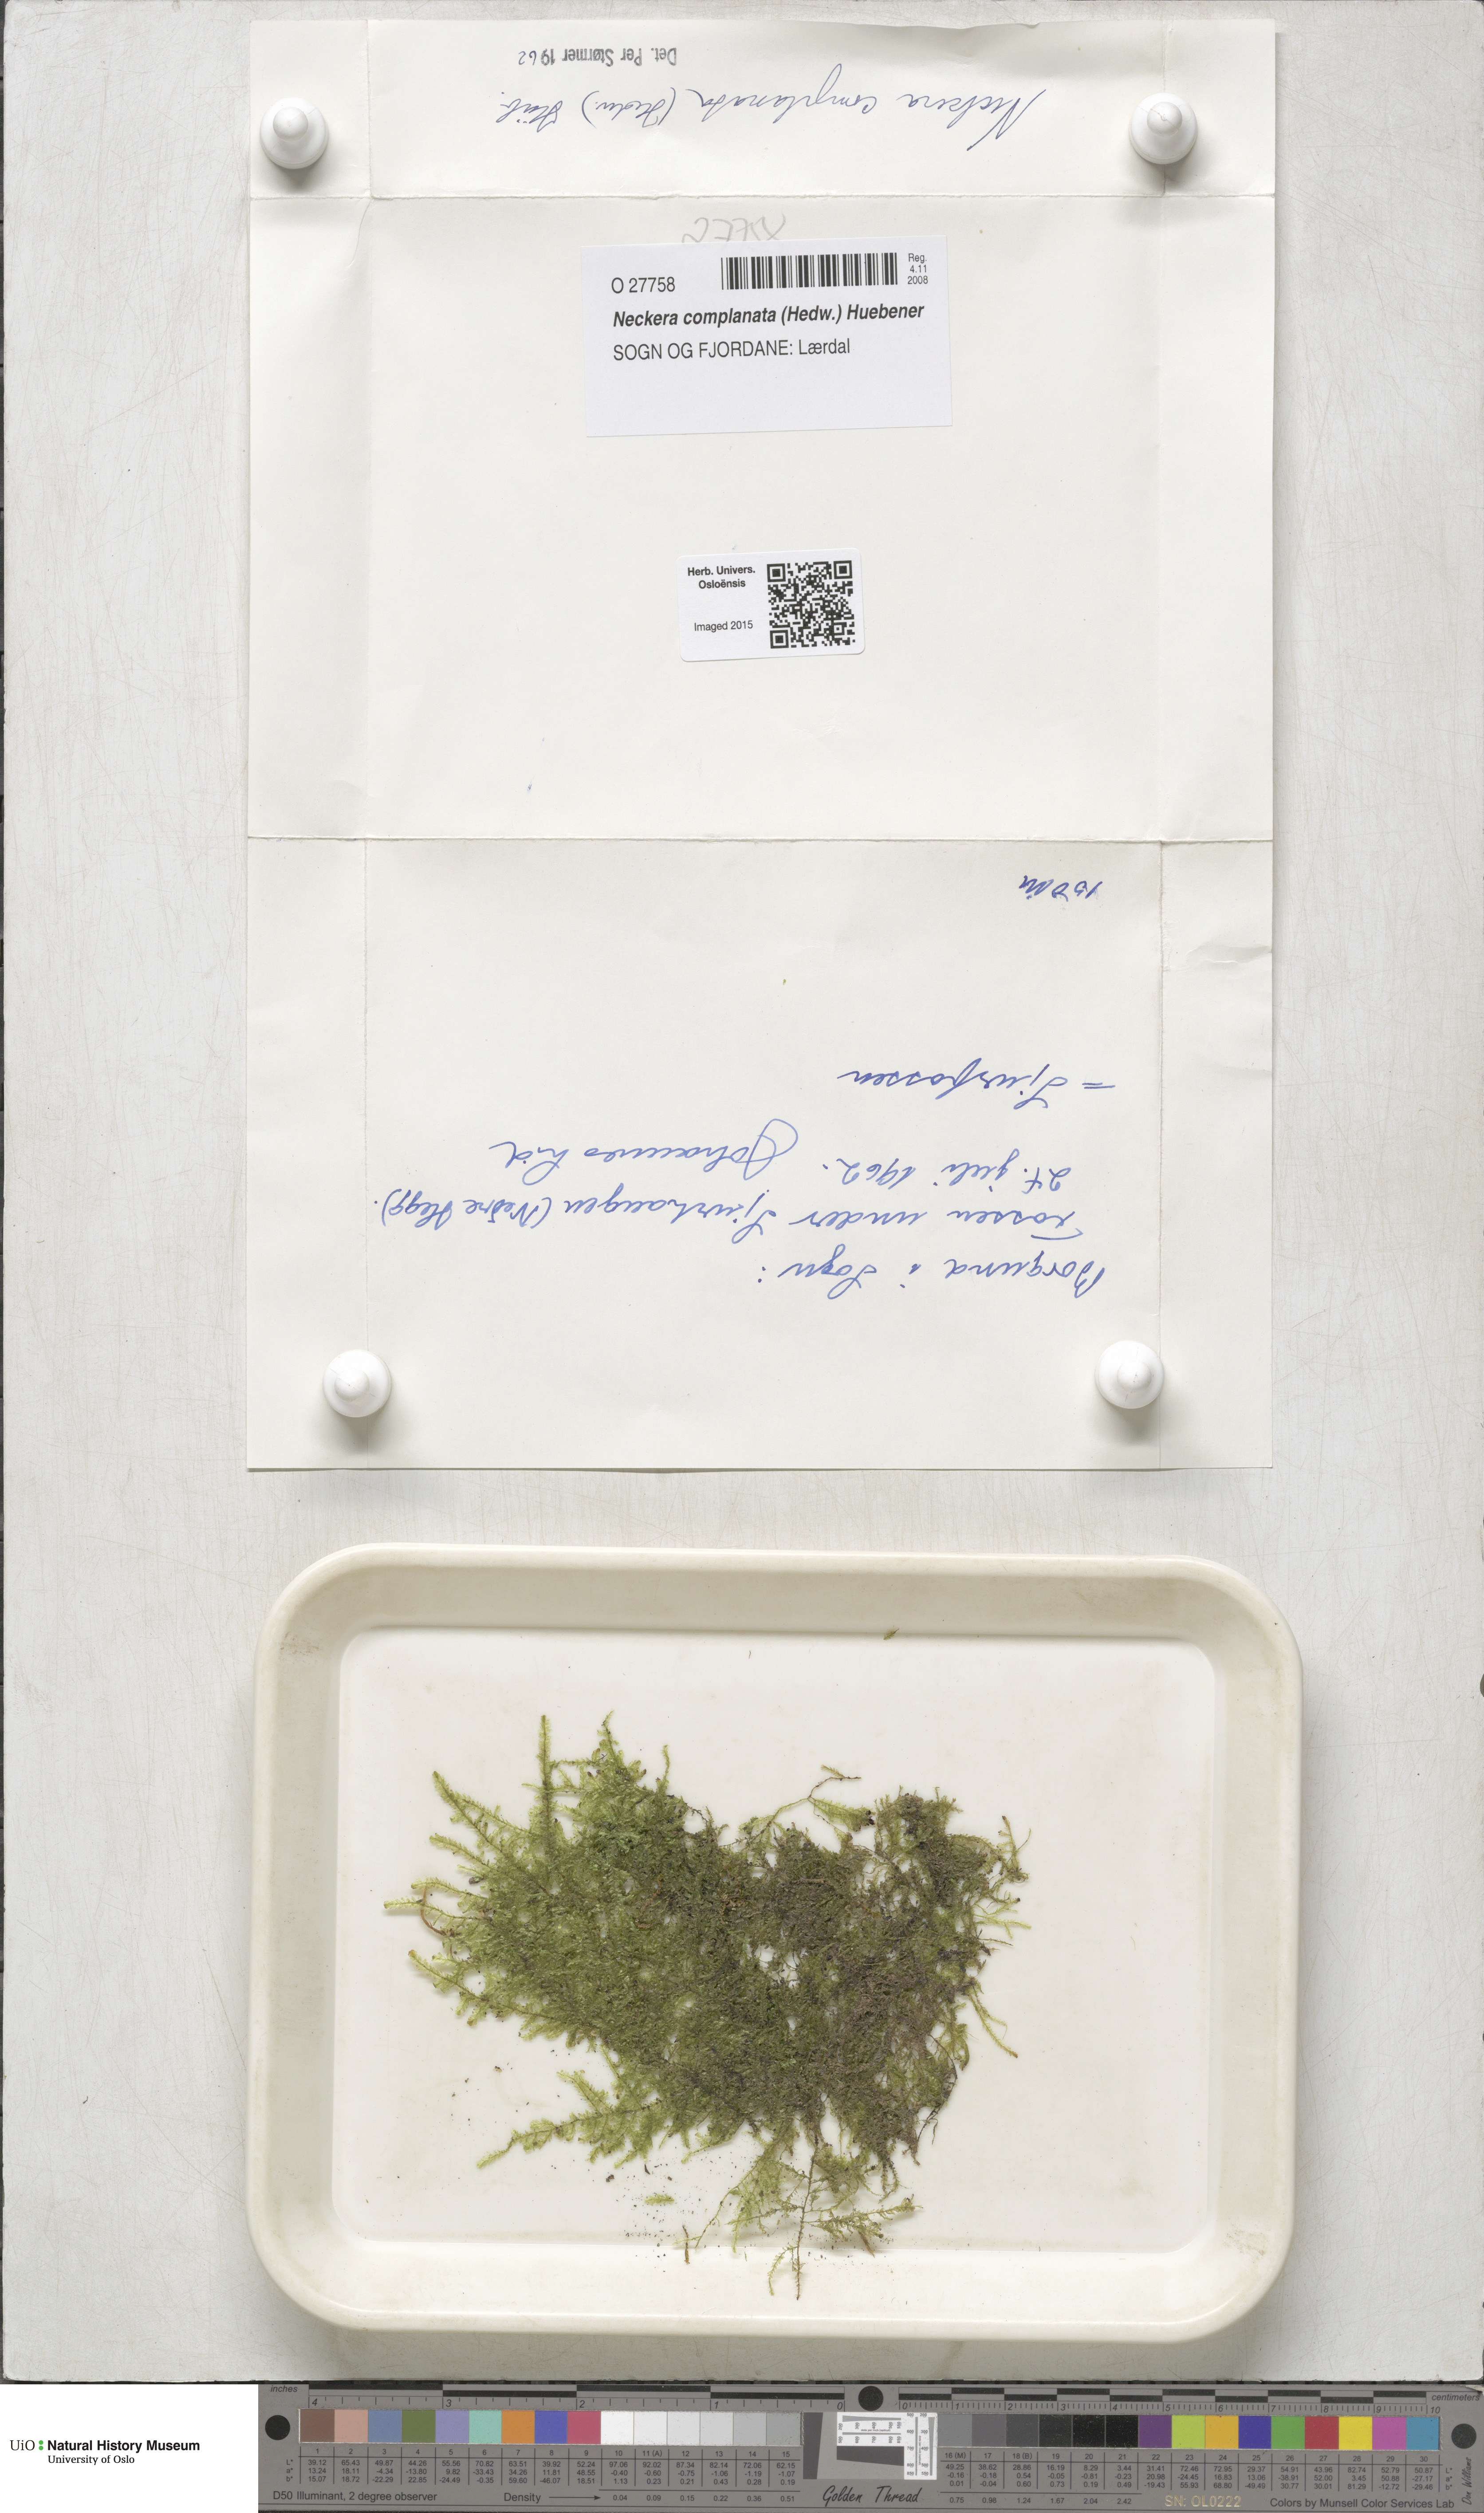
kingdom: Plantae
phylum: Bryophyta
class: Bryopsida
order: Hypnales
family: Neckeraceae
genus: Alleniella
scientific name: Alleniella complanata
